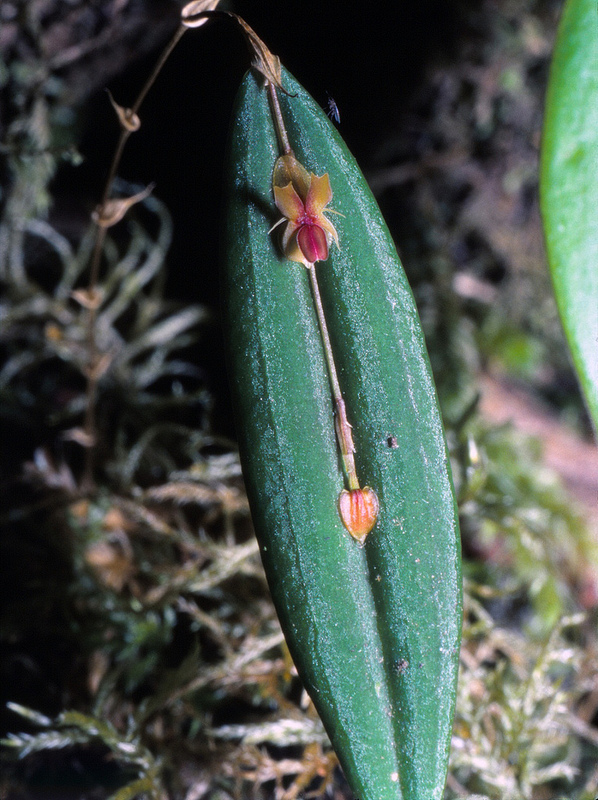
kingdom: Plantae
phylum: Tracheophyta
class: Liliopsida
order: Asparagales
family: Orchidaceae
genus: Lepanthes
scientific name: Lepanthes mucronata
